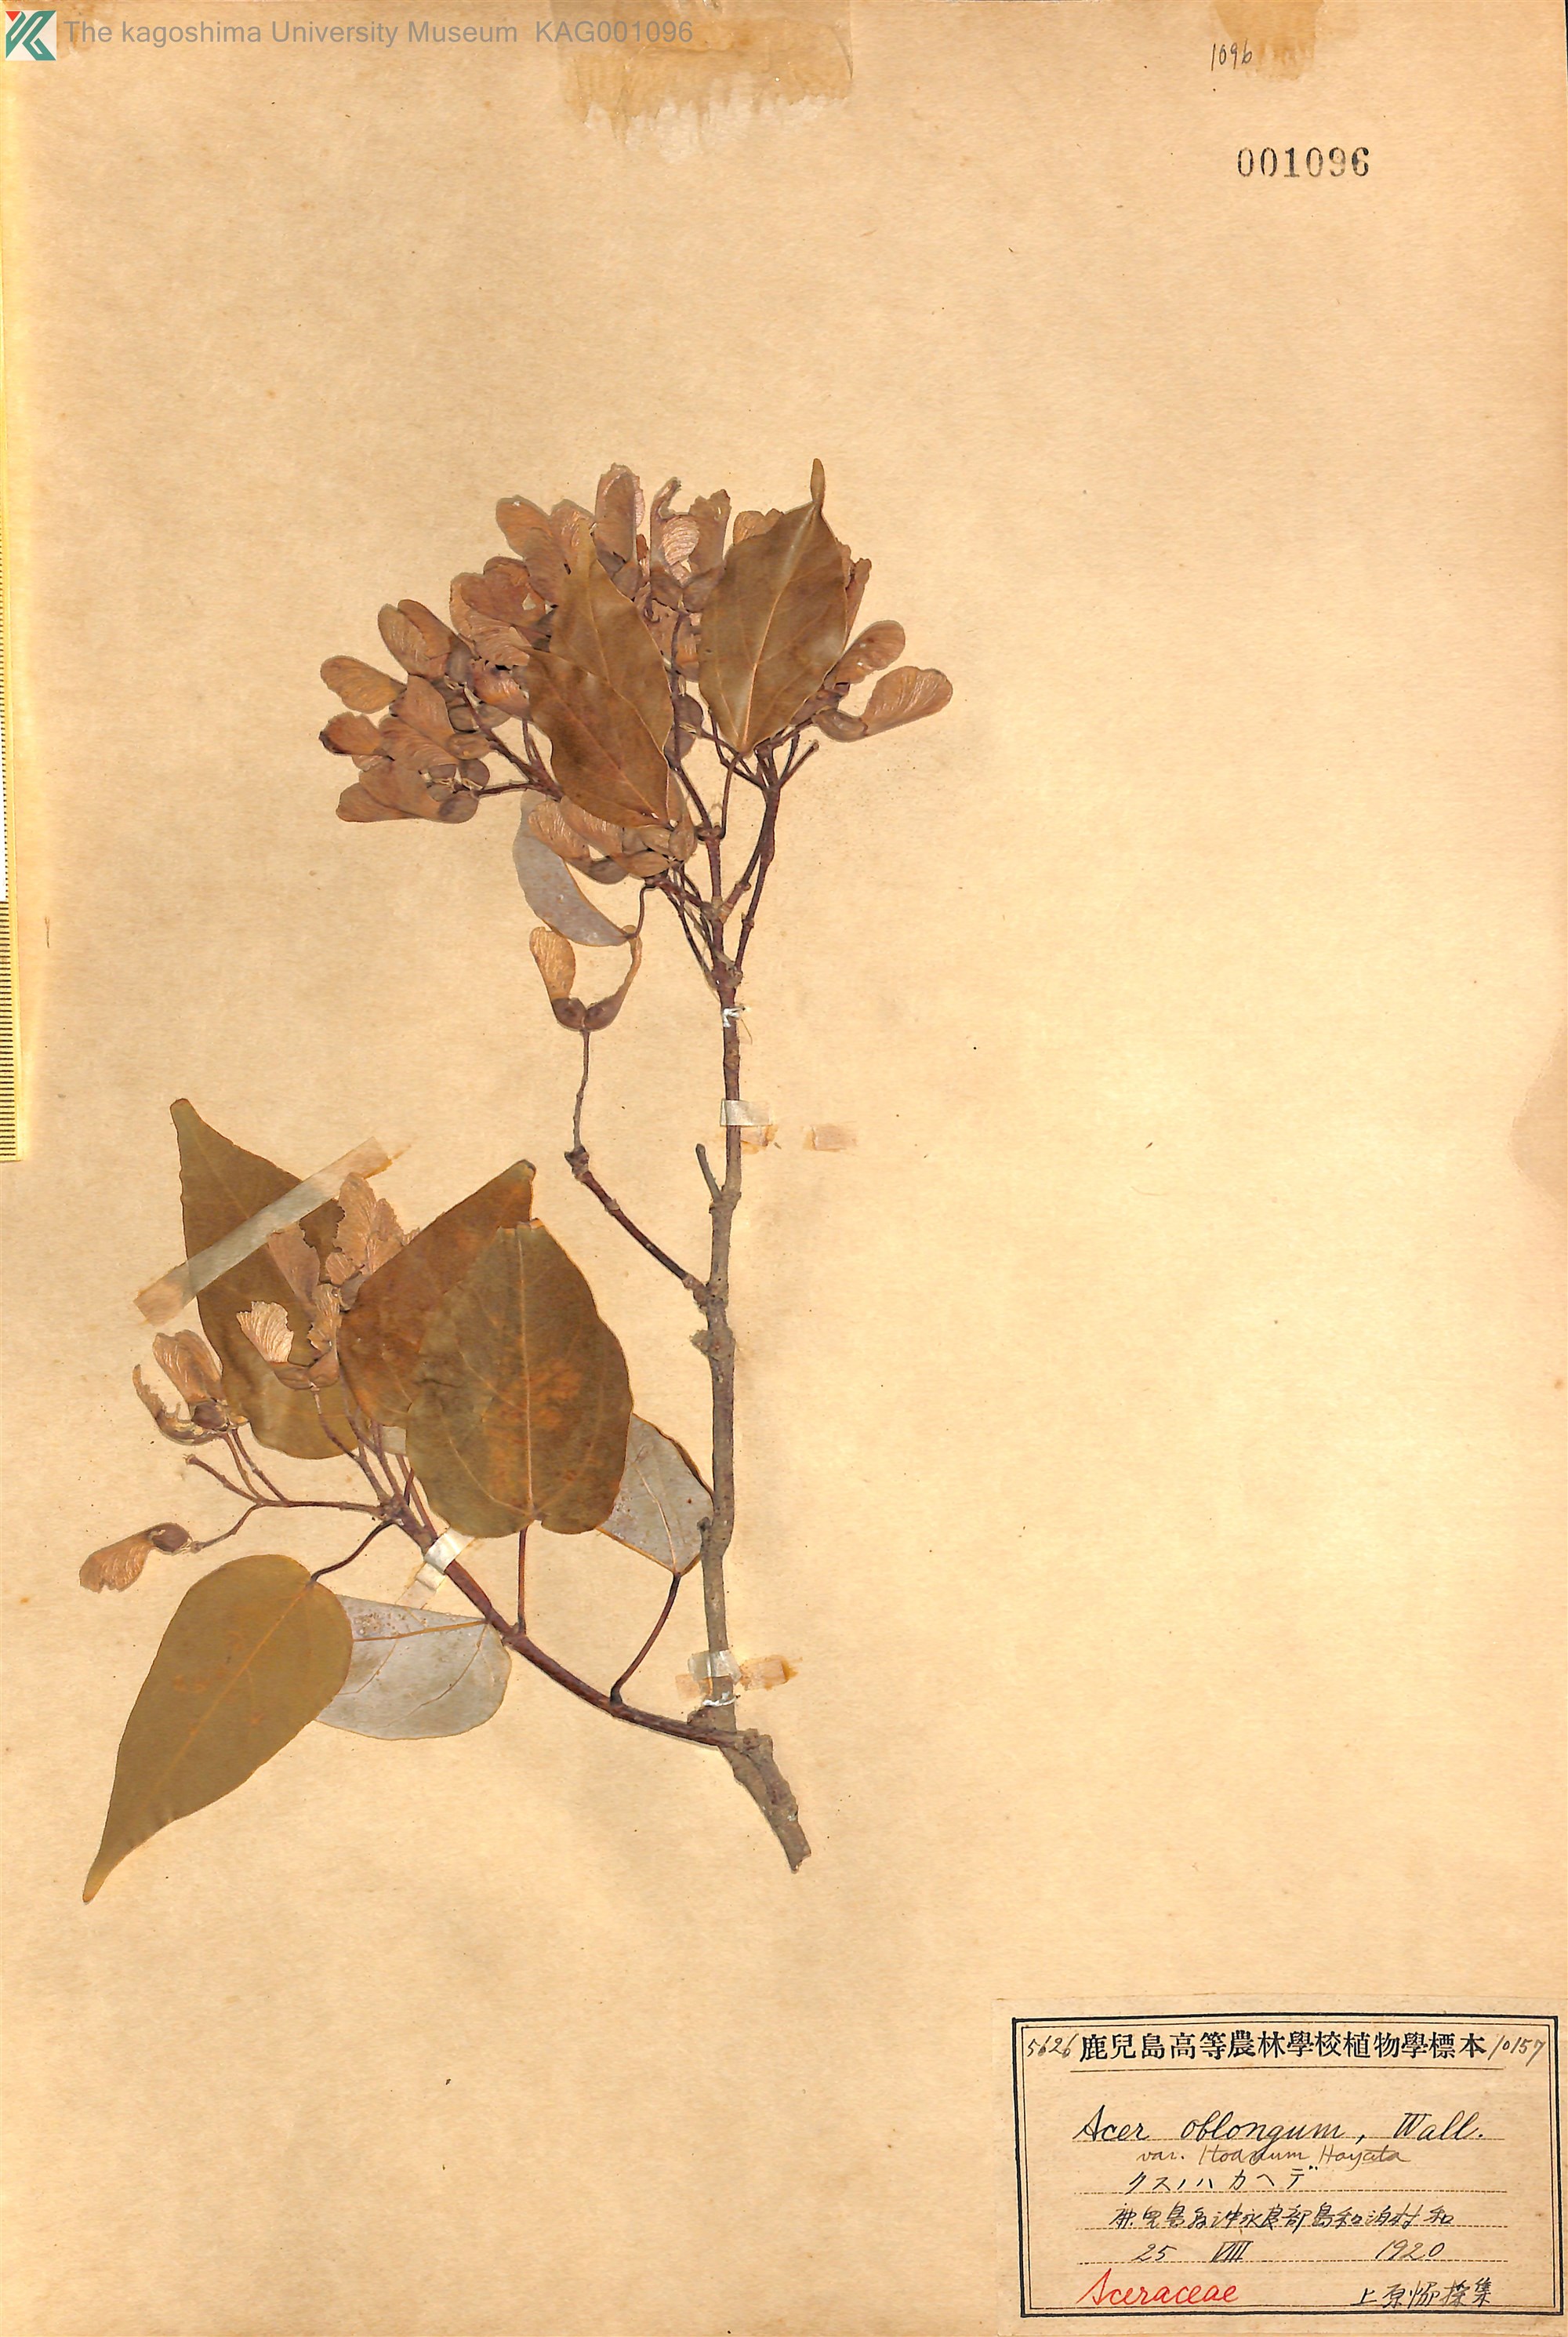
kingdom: Plantae
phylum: Tracheophyta
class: Magnoliopsida
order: Sapindales
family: Sapindaceae
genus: Acer
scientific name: Acer oblongum
